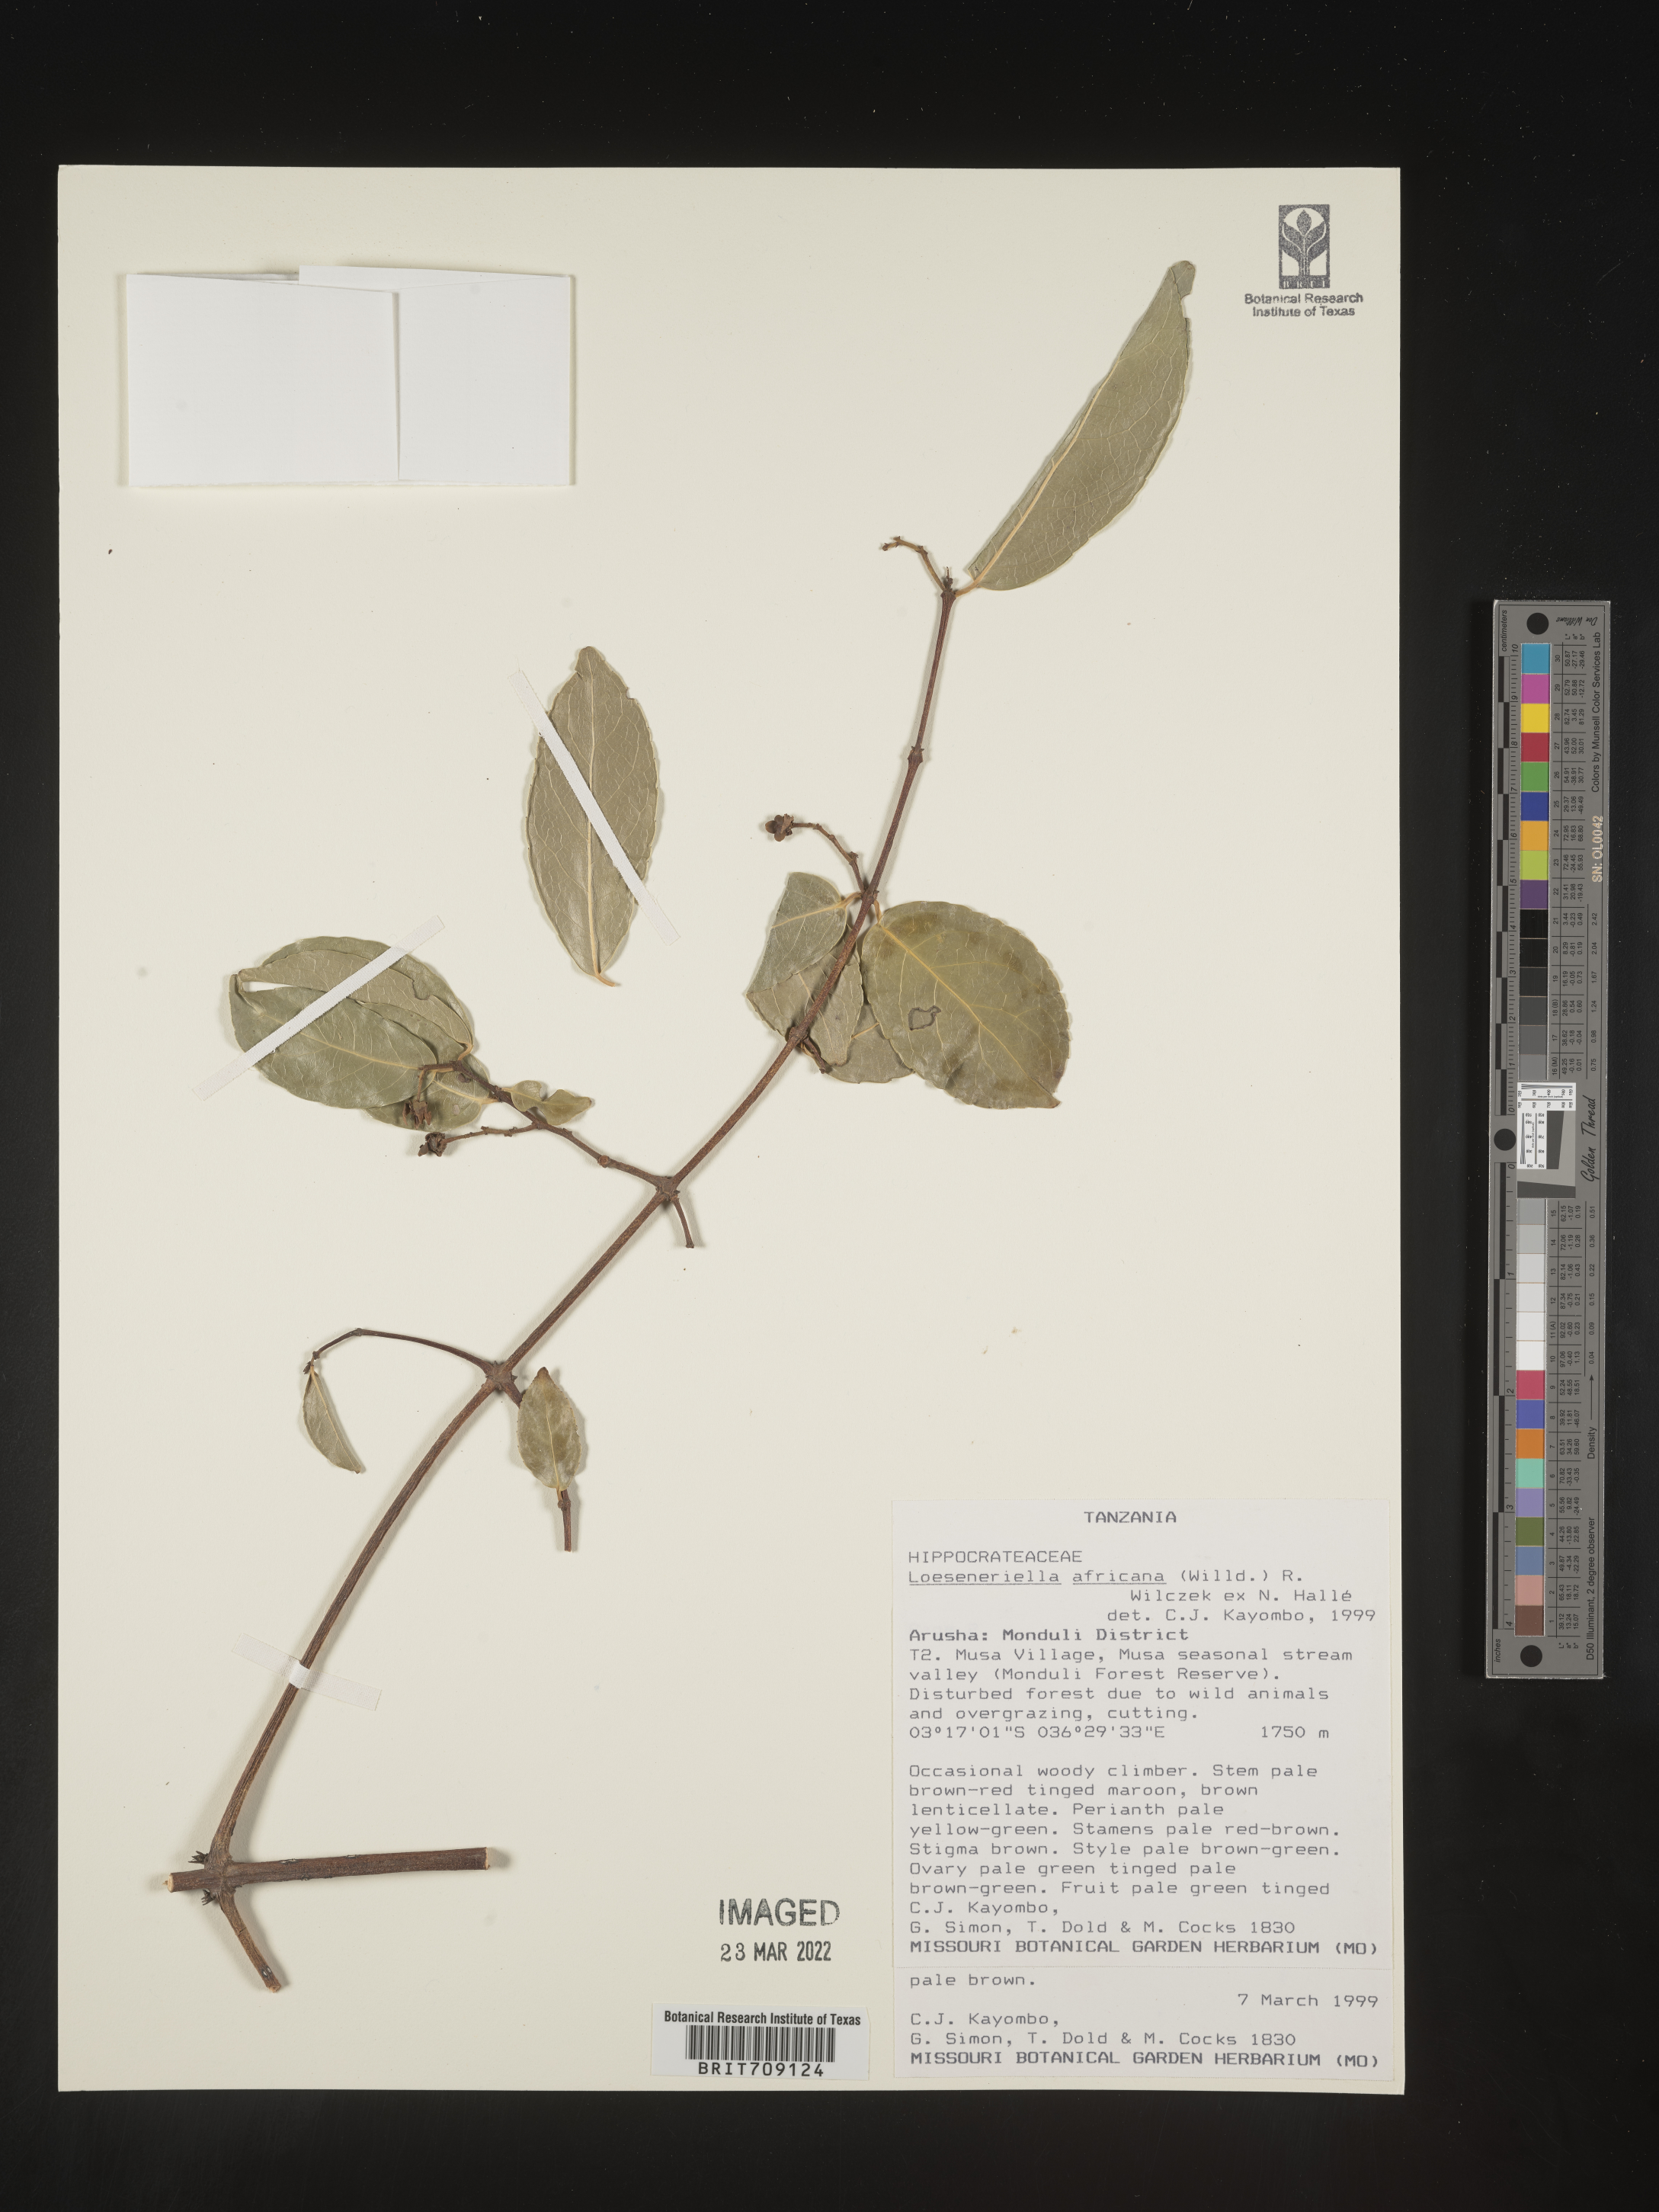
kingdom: Plantae
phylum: Tracheophyta
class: Magnoliopsida
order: Celastrales
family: Celastraceae
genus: Loeseneriella
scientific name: Loeseneriella
